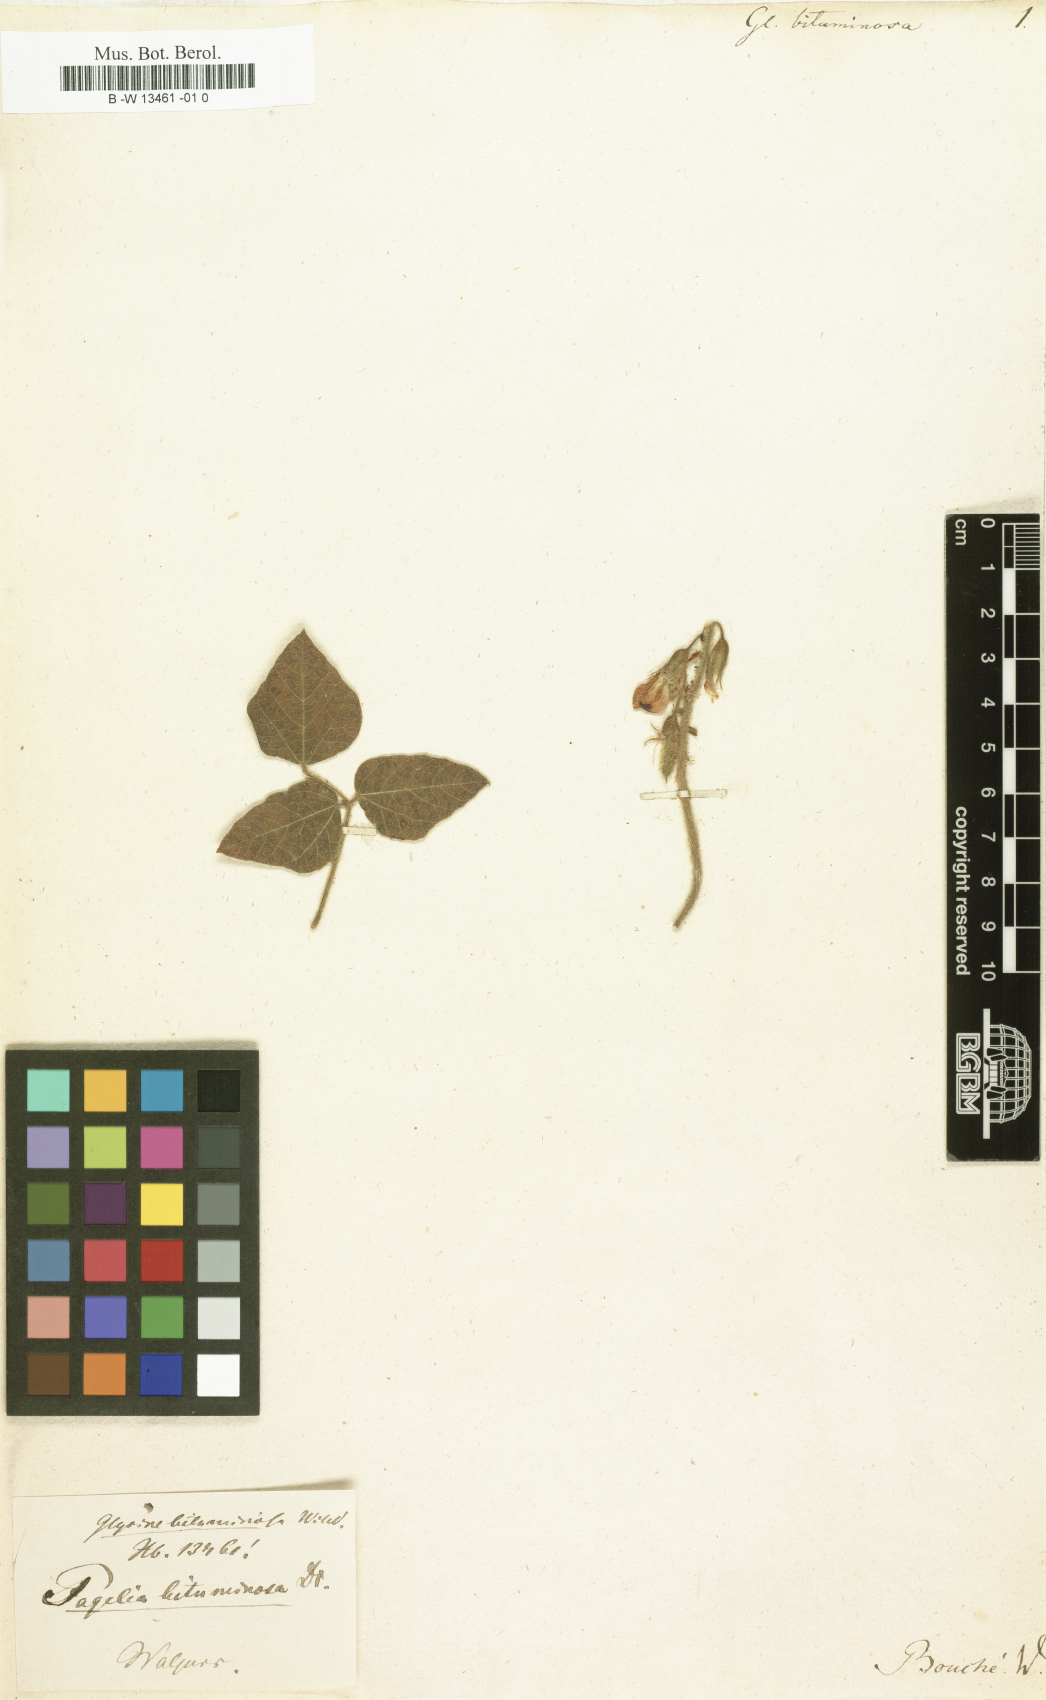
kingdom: Plantae
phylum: Tracheophyta
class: Magnoliopsida
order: Fabales
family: Fabaceae
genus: Bolusafra
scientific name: Bolusafra bituminosa
